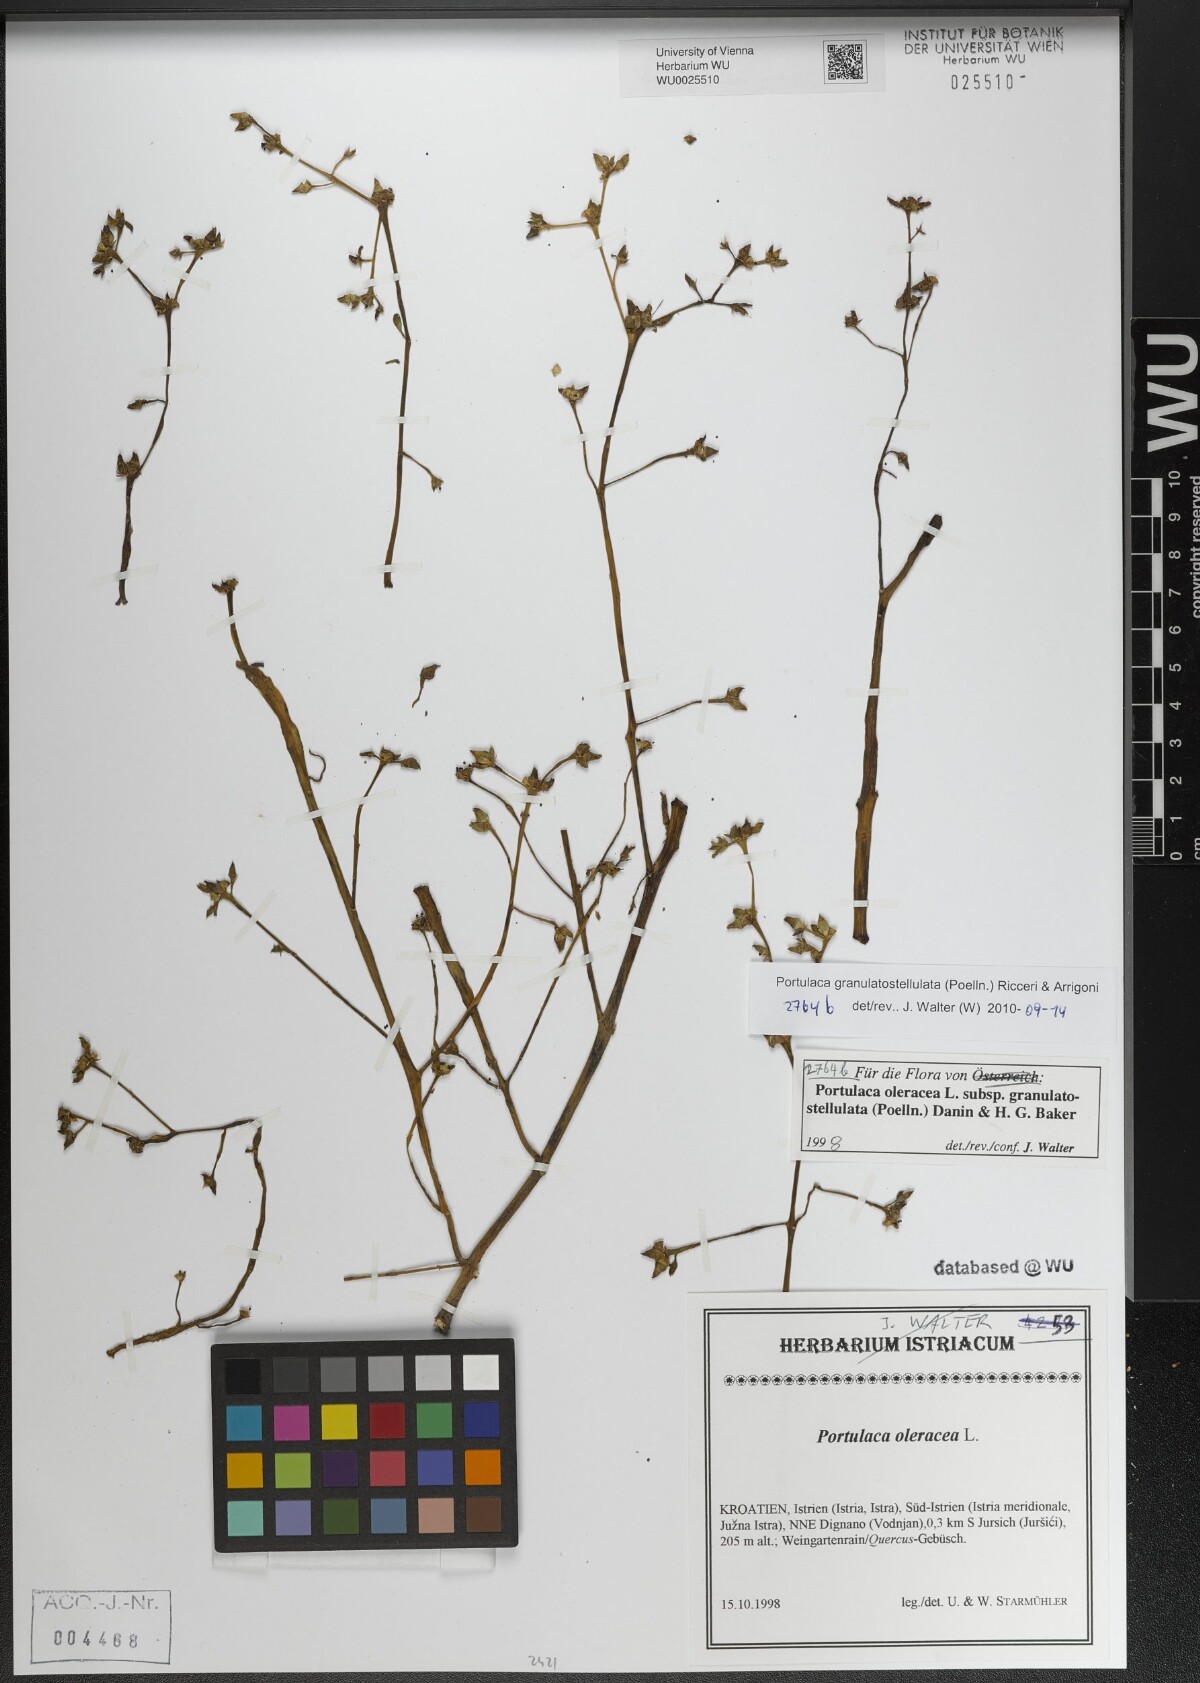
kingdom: Plantae
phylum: Tracheophyta
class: Magnoliopsida
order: Caryophyllales
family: Portulacaceae
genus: Portulaca
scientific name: Portulaca granulatostellulata
